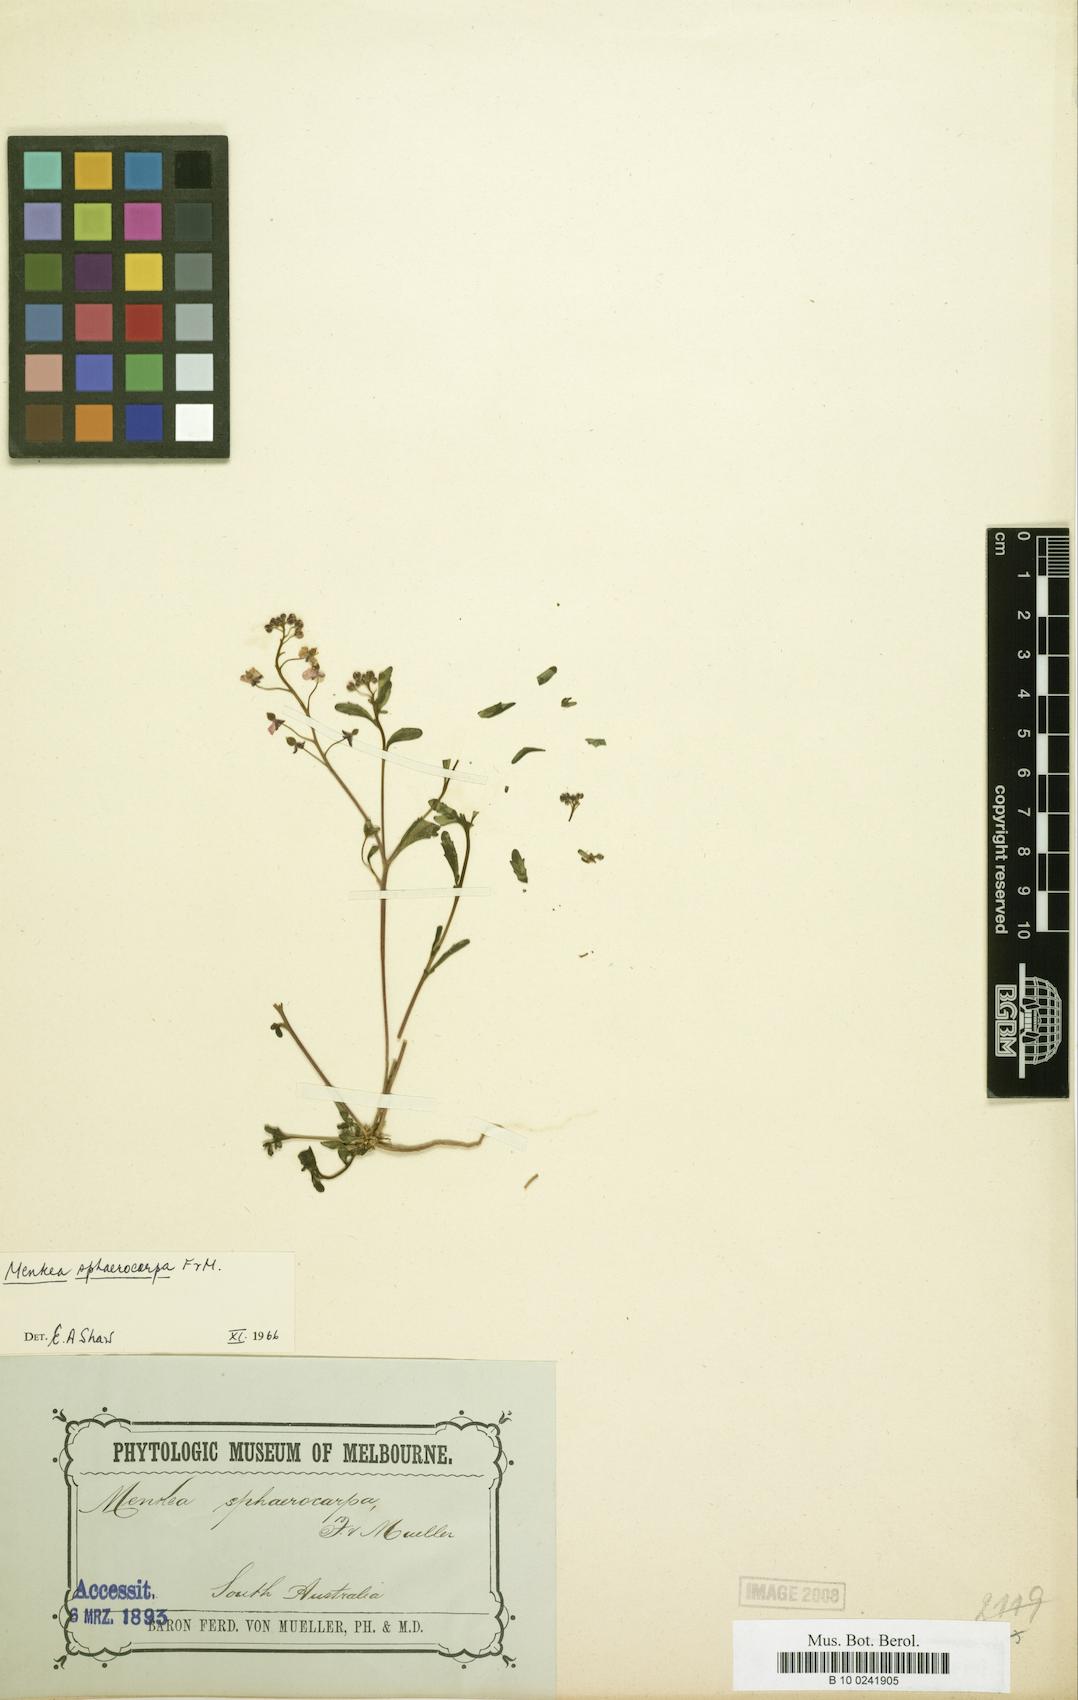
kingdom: Plantae
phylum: Tracheophyta
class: Magnoliopsida
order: Brassicales
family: Brassicaceae
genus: Menkea
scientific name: Menkea sphaerocarpa
